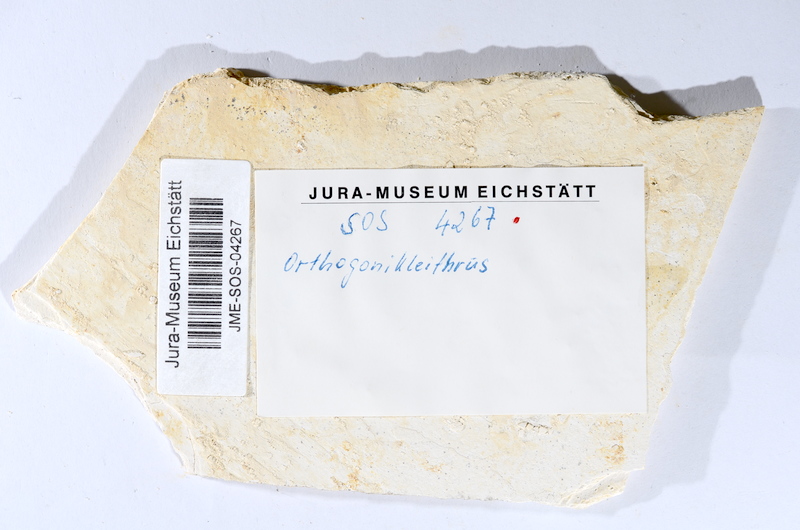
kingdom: Animalia
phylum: Chordata
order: Salmoniformes
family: Orthogonikleithridae
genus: Orthogonikleithrus
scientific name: Orthogonikleithrus hoelli
